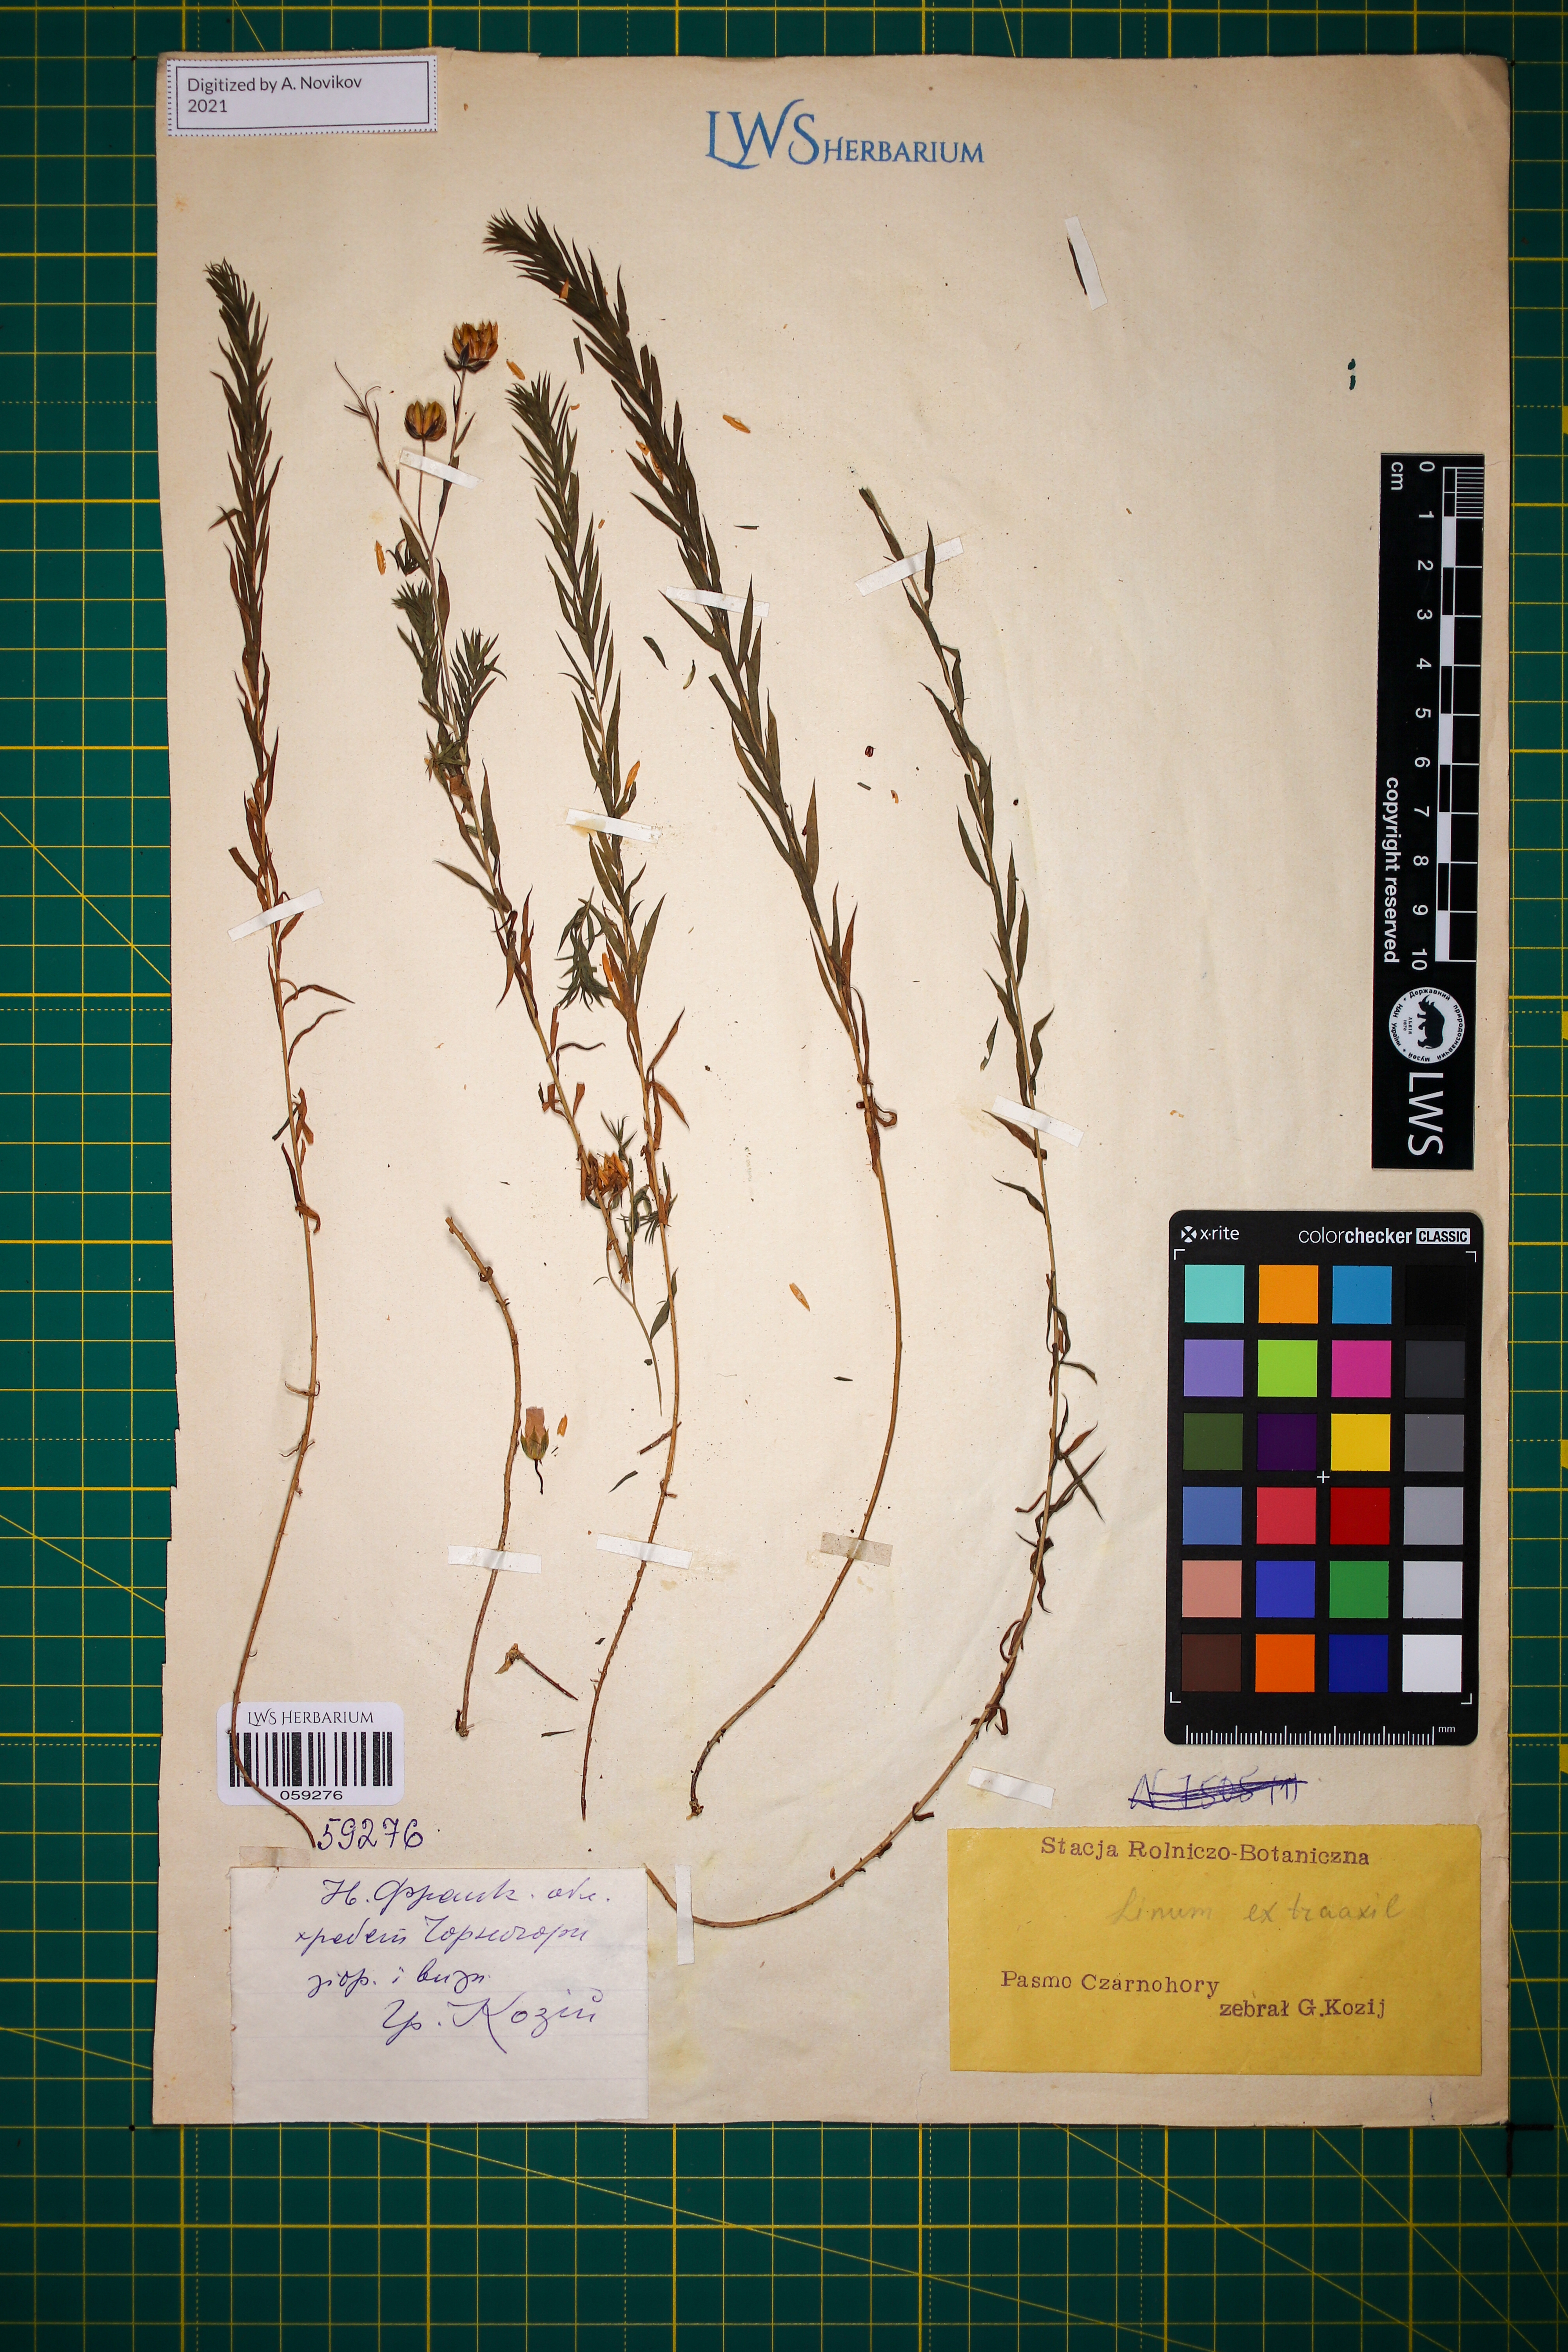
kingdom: Plantae
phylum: Tracheophyta
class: Magnoliopsida
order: Malpighiales
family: Linaceae
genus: Linum
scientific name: Linum perenne
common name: Blue flax
